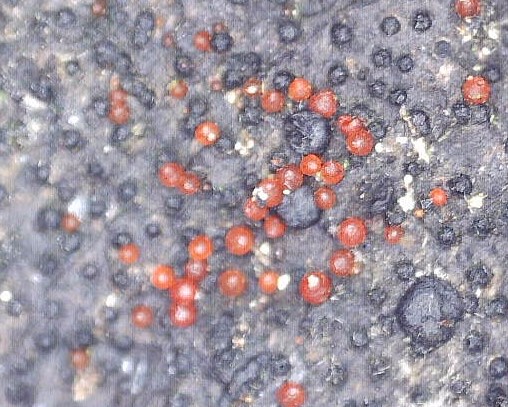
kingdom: Fungi
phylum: Ascomycota
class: Sordariomycetes
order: Hypocreales
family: Nectriaceae
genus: Dialonectria
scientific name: Dialonectria episphaeria
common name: kulskorpe-cinnobersvamp
